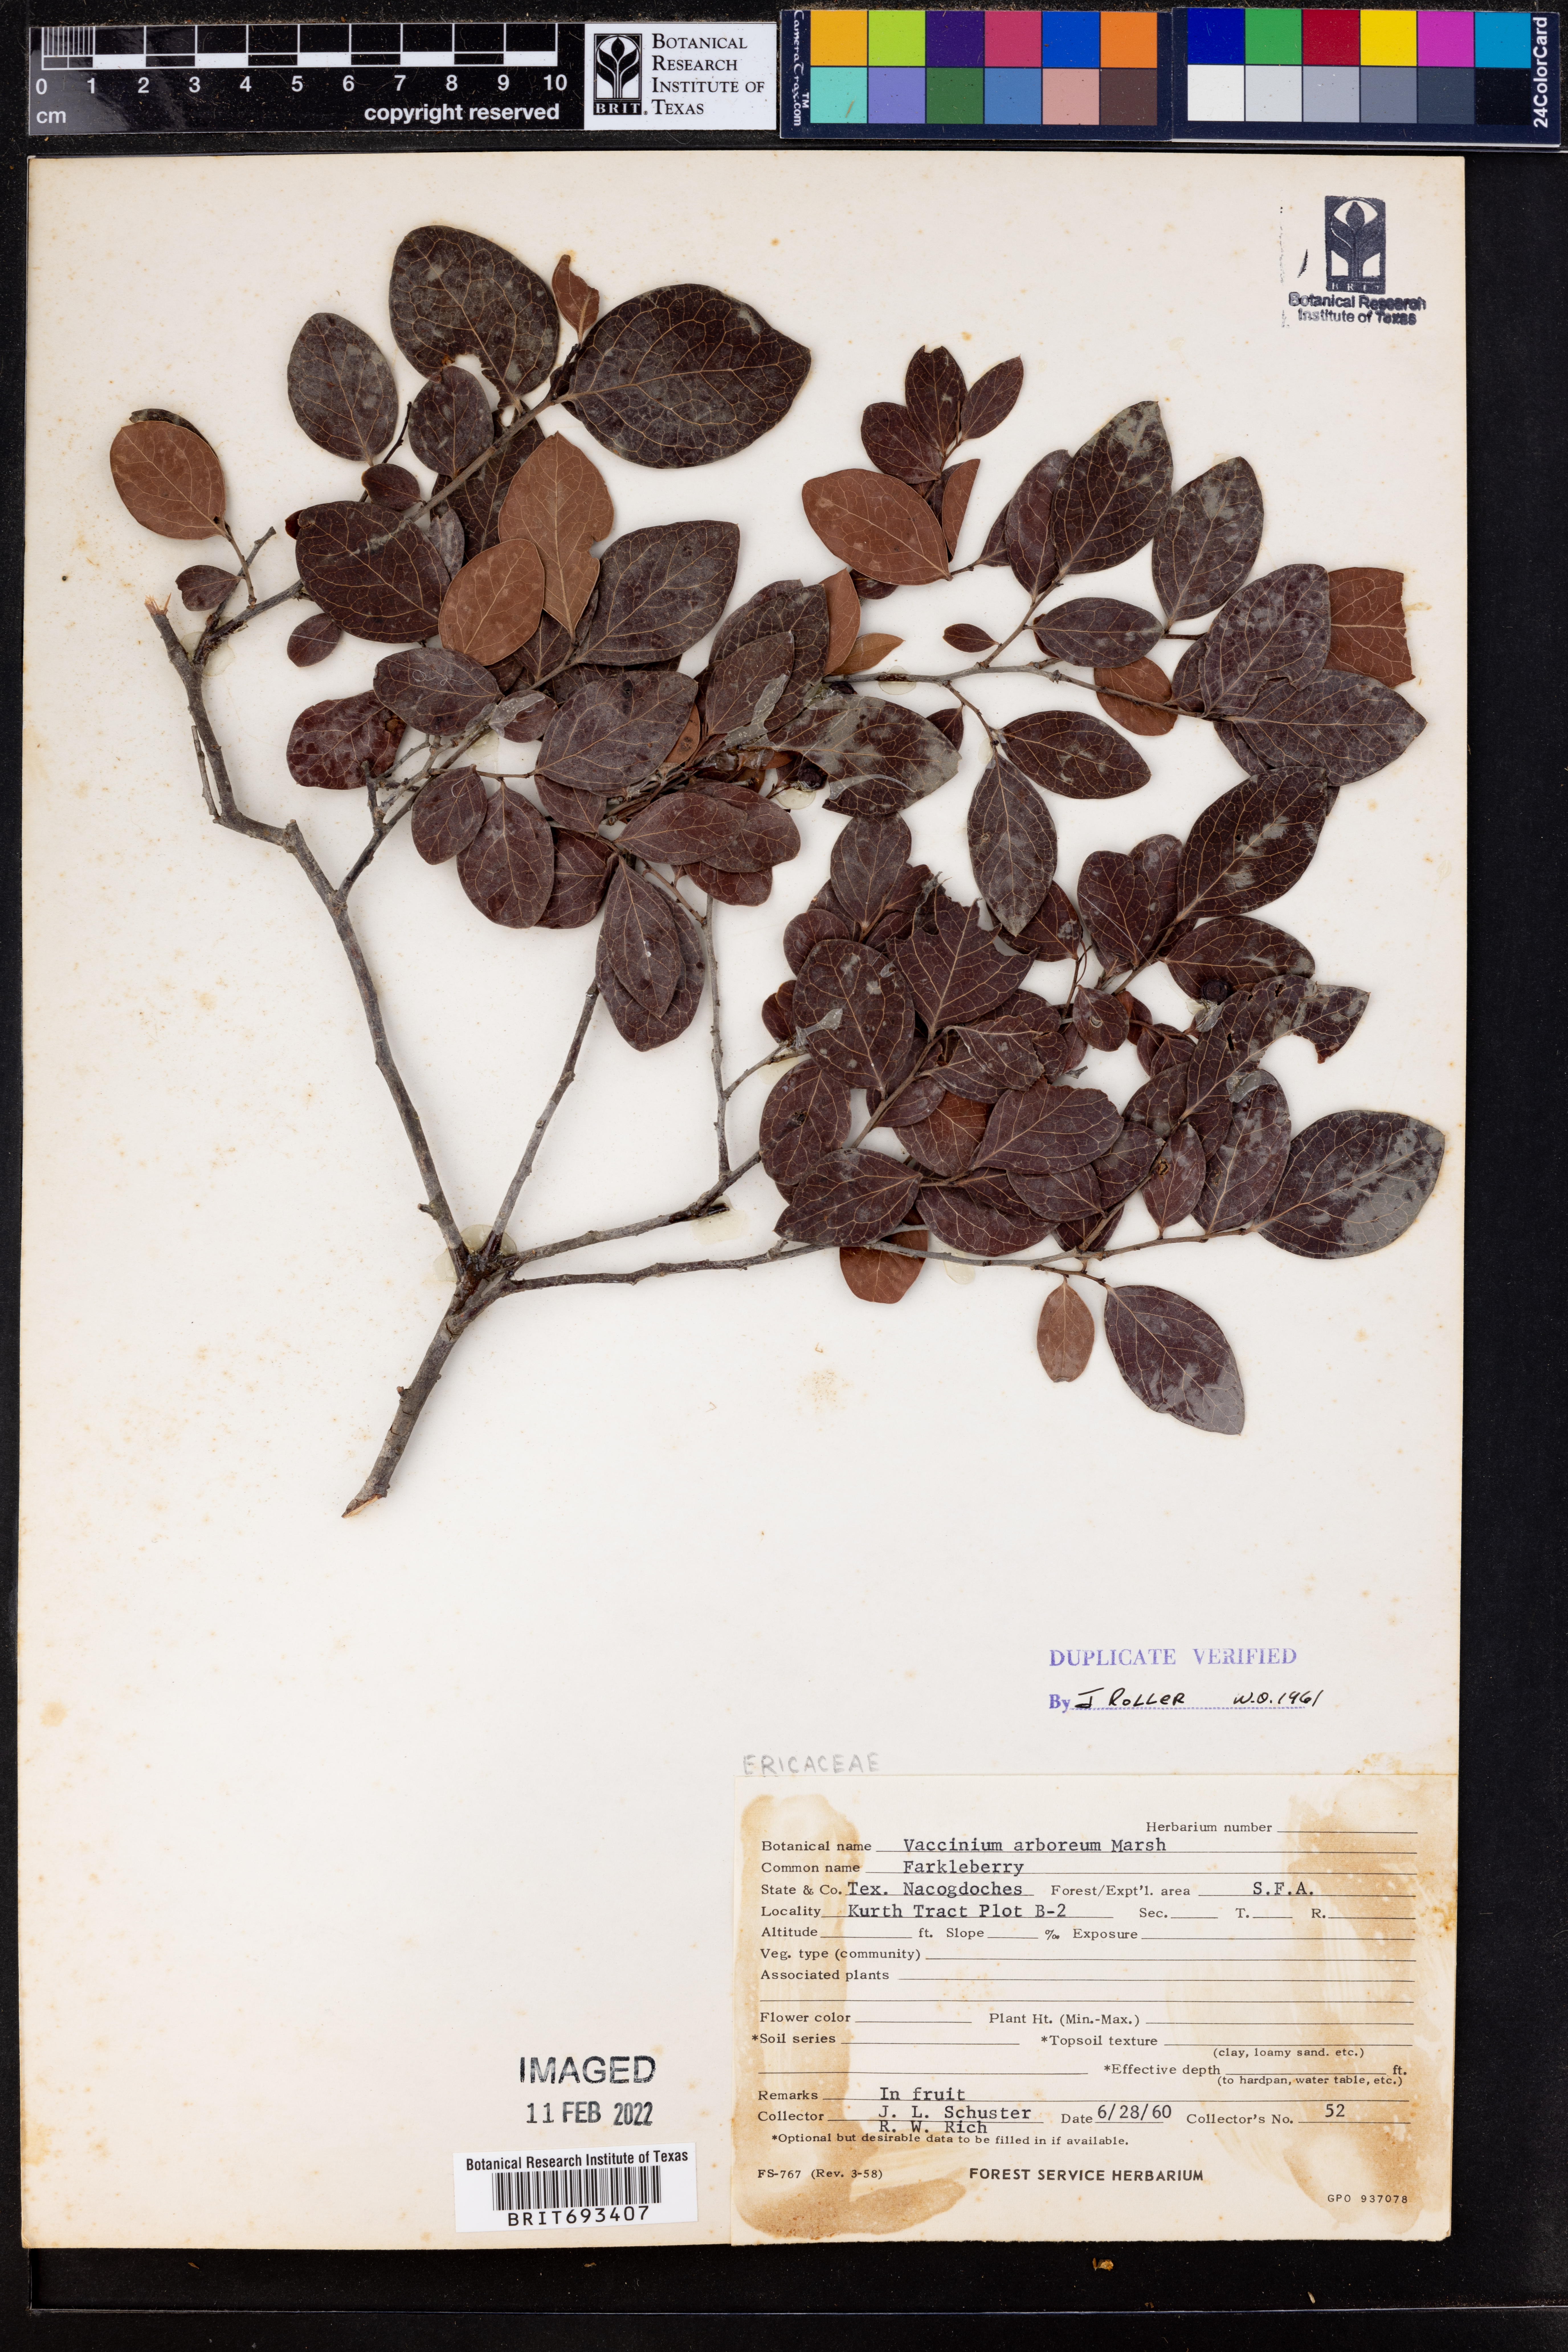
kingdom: Plantae
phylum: Tracheophyta
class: Magnoliopsida
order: Ericales
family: Ericaceae
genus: Vaccinium
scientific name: Vaccinium arboreum
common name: Farkleberry
